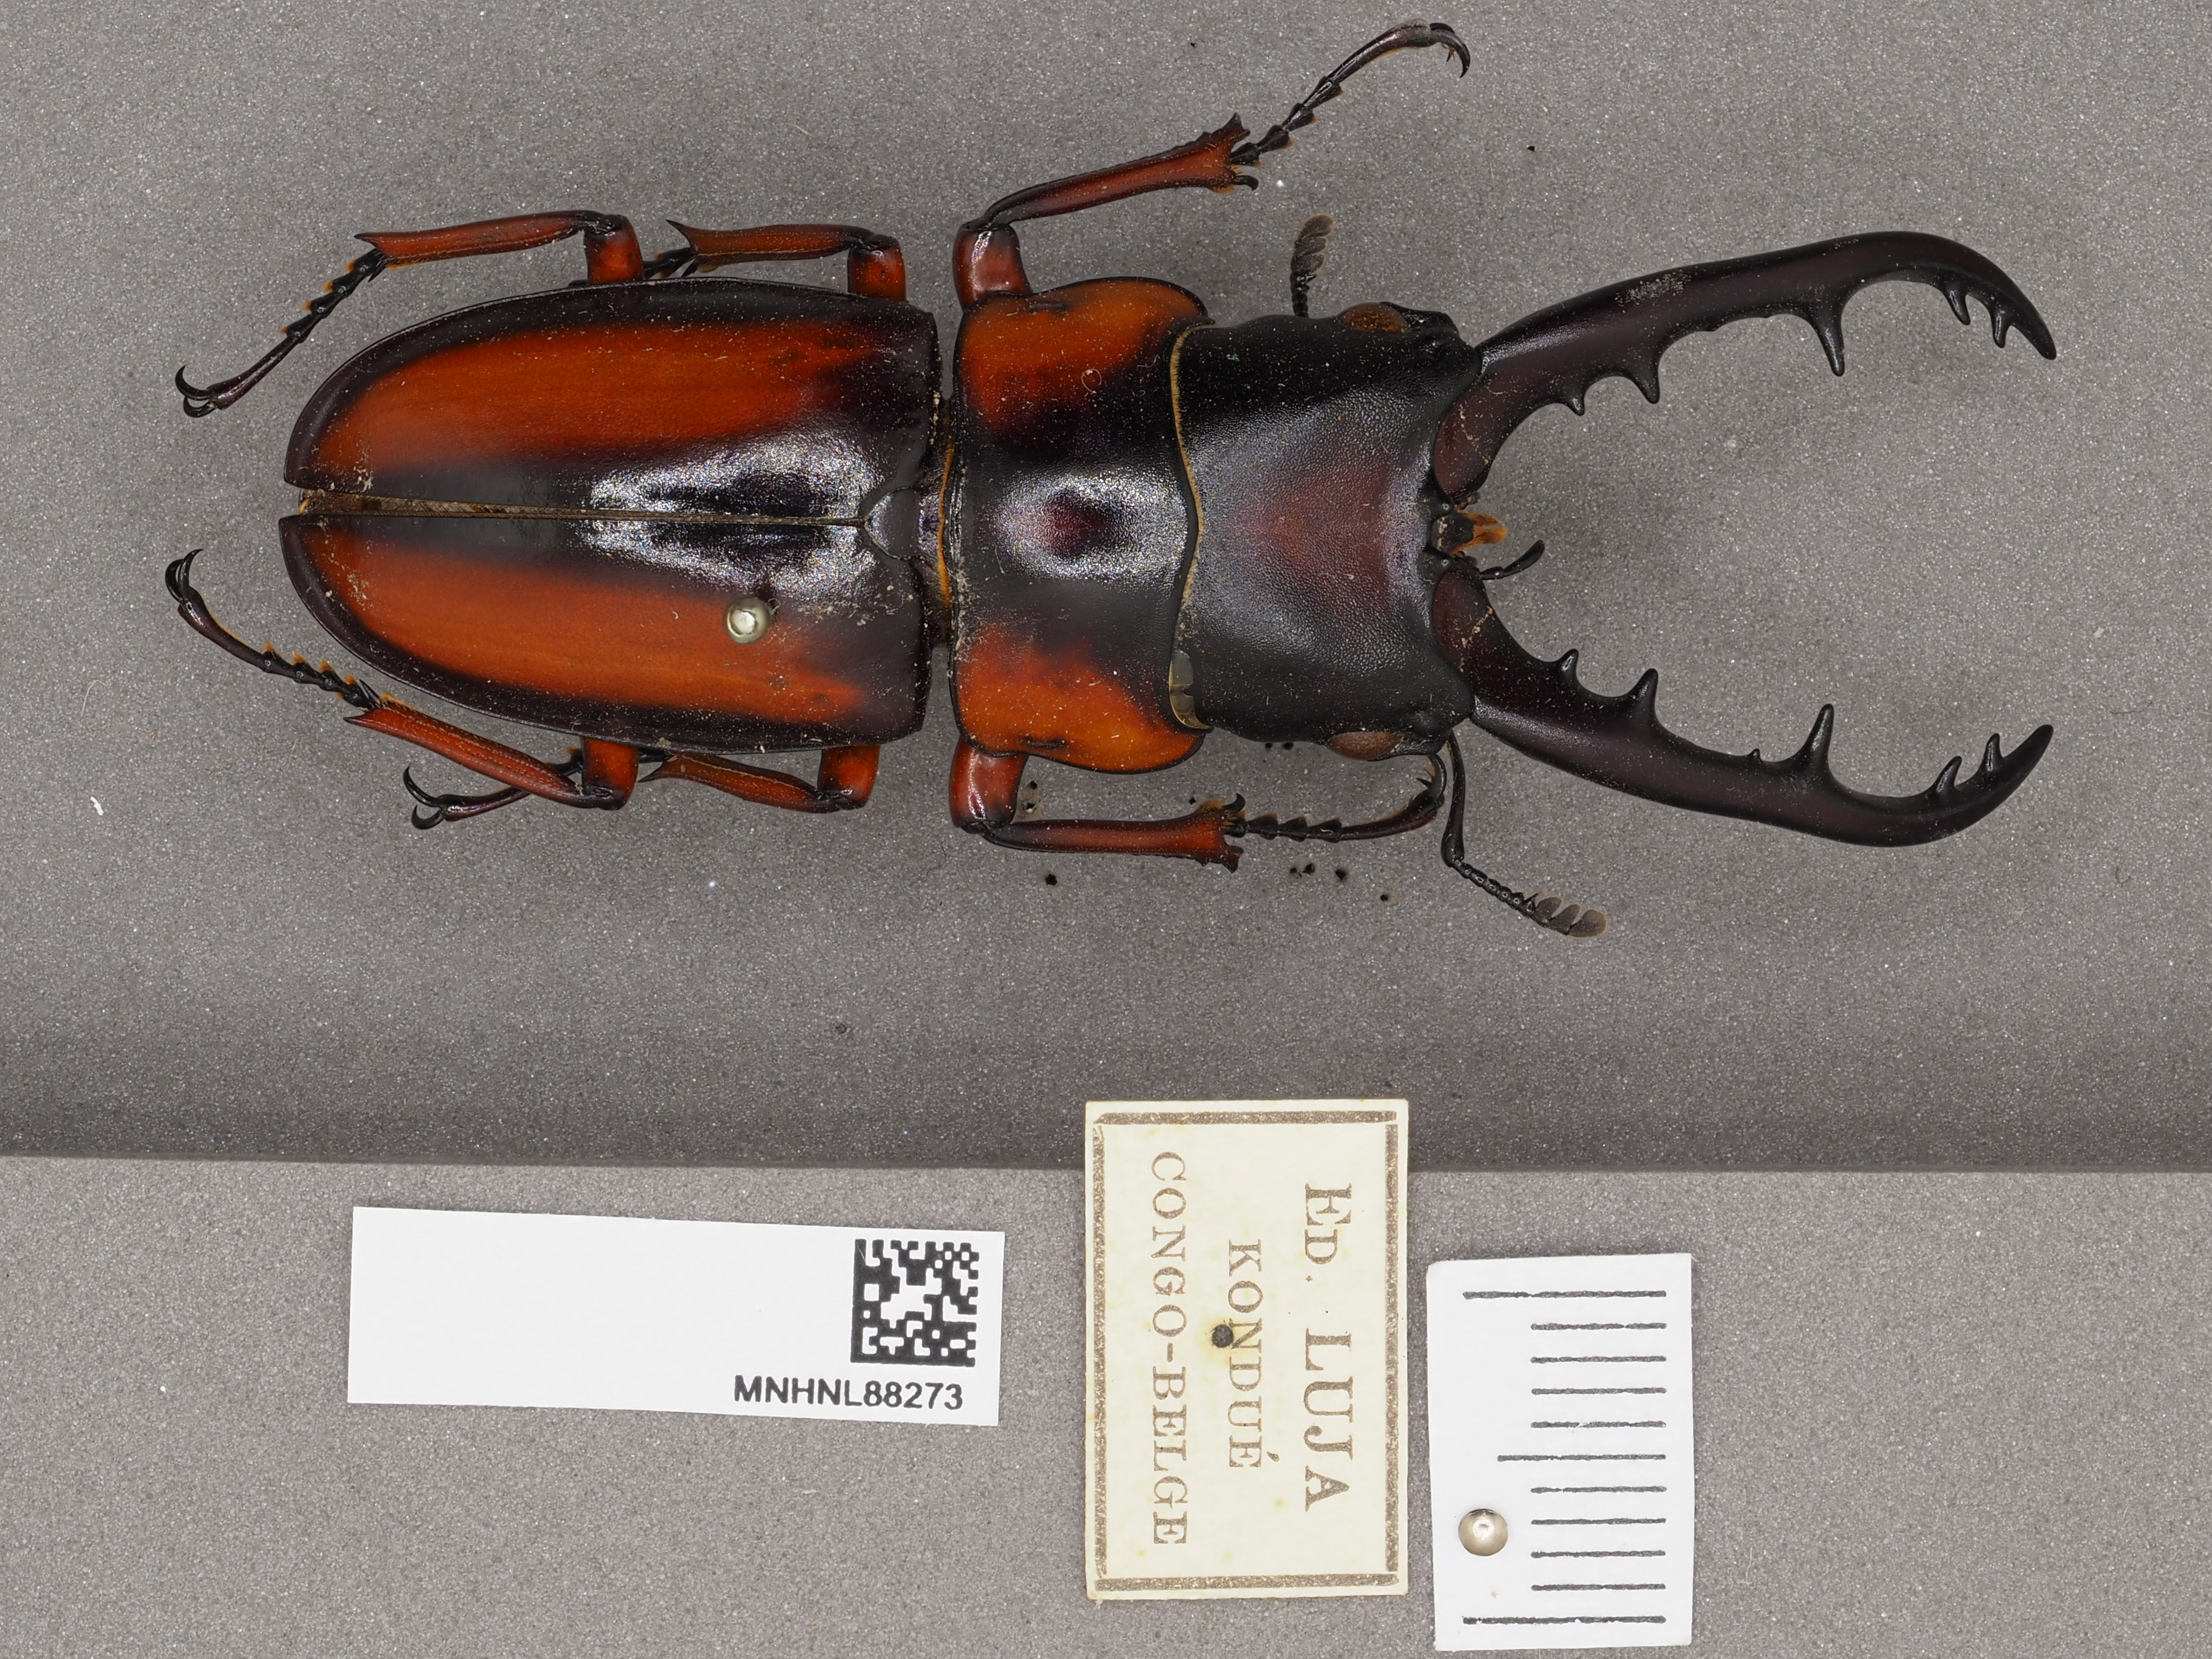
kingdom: Animalia
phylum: Arthropoda
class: Insecta
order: Coleoptera
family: Lucanidae
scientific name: Lucanidae
